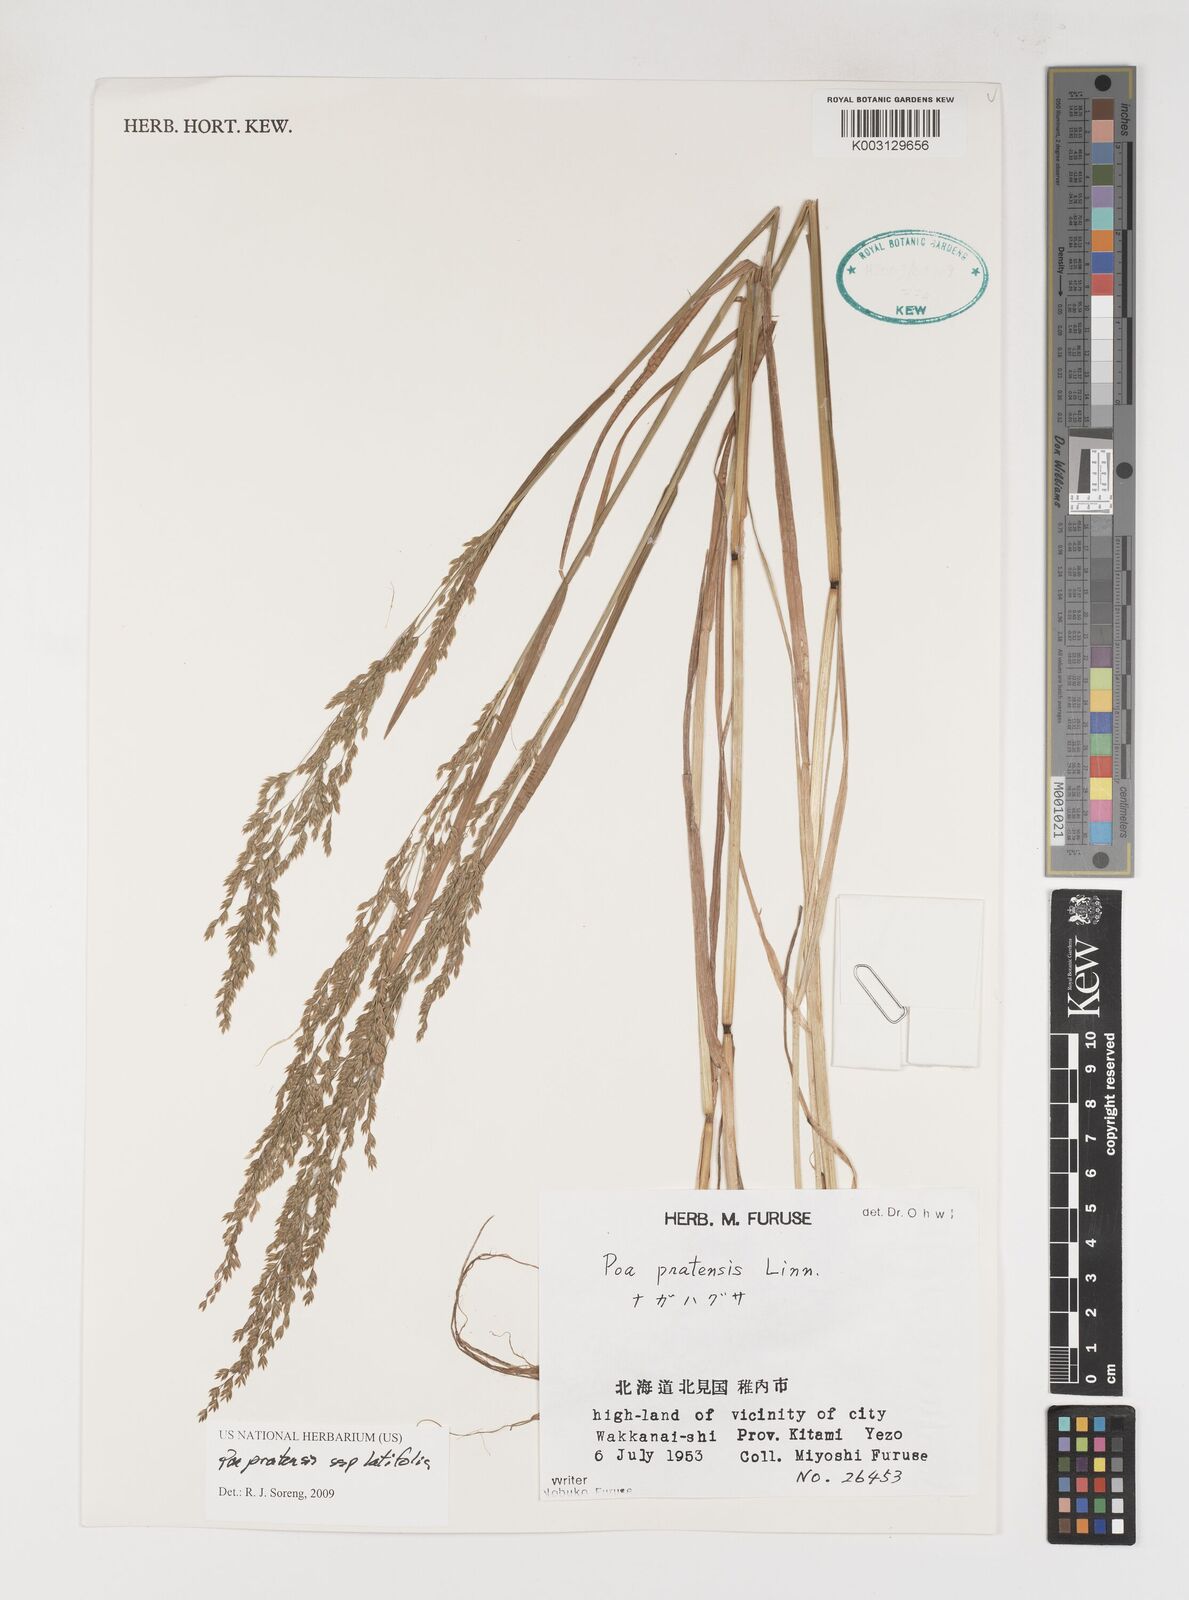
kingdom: Plantae
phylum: Tracheophyta
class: Liliopsida
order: Poales
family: Poaceae
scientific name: Poaceae
